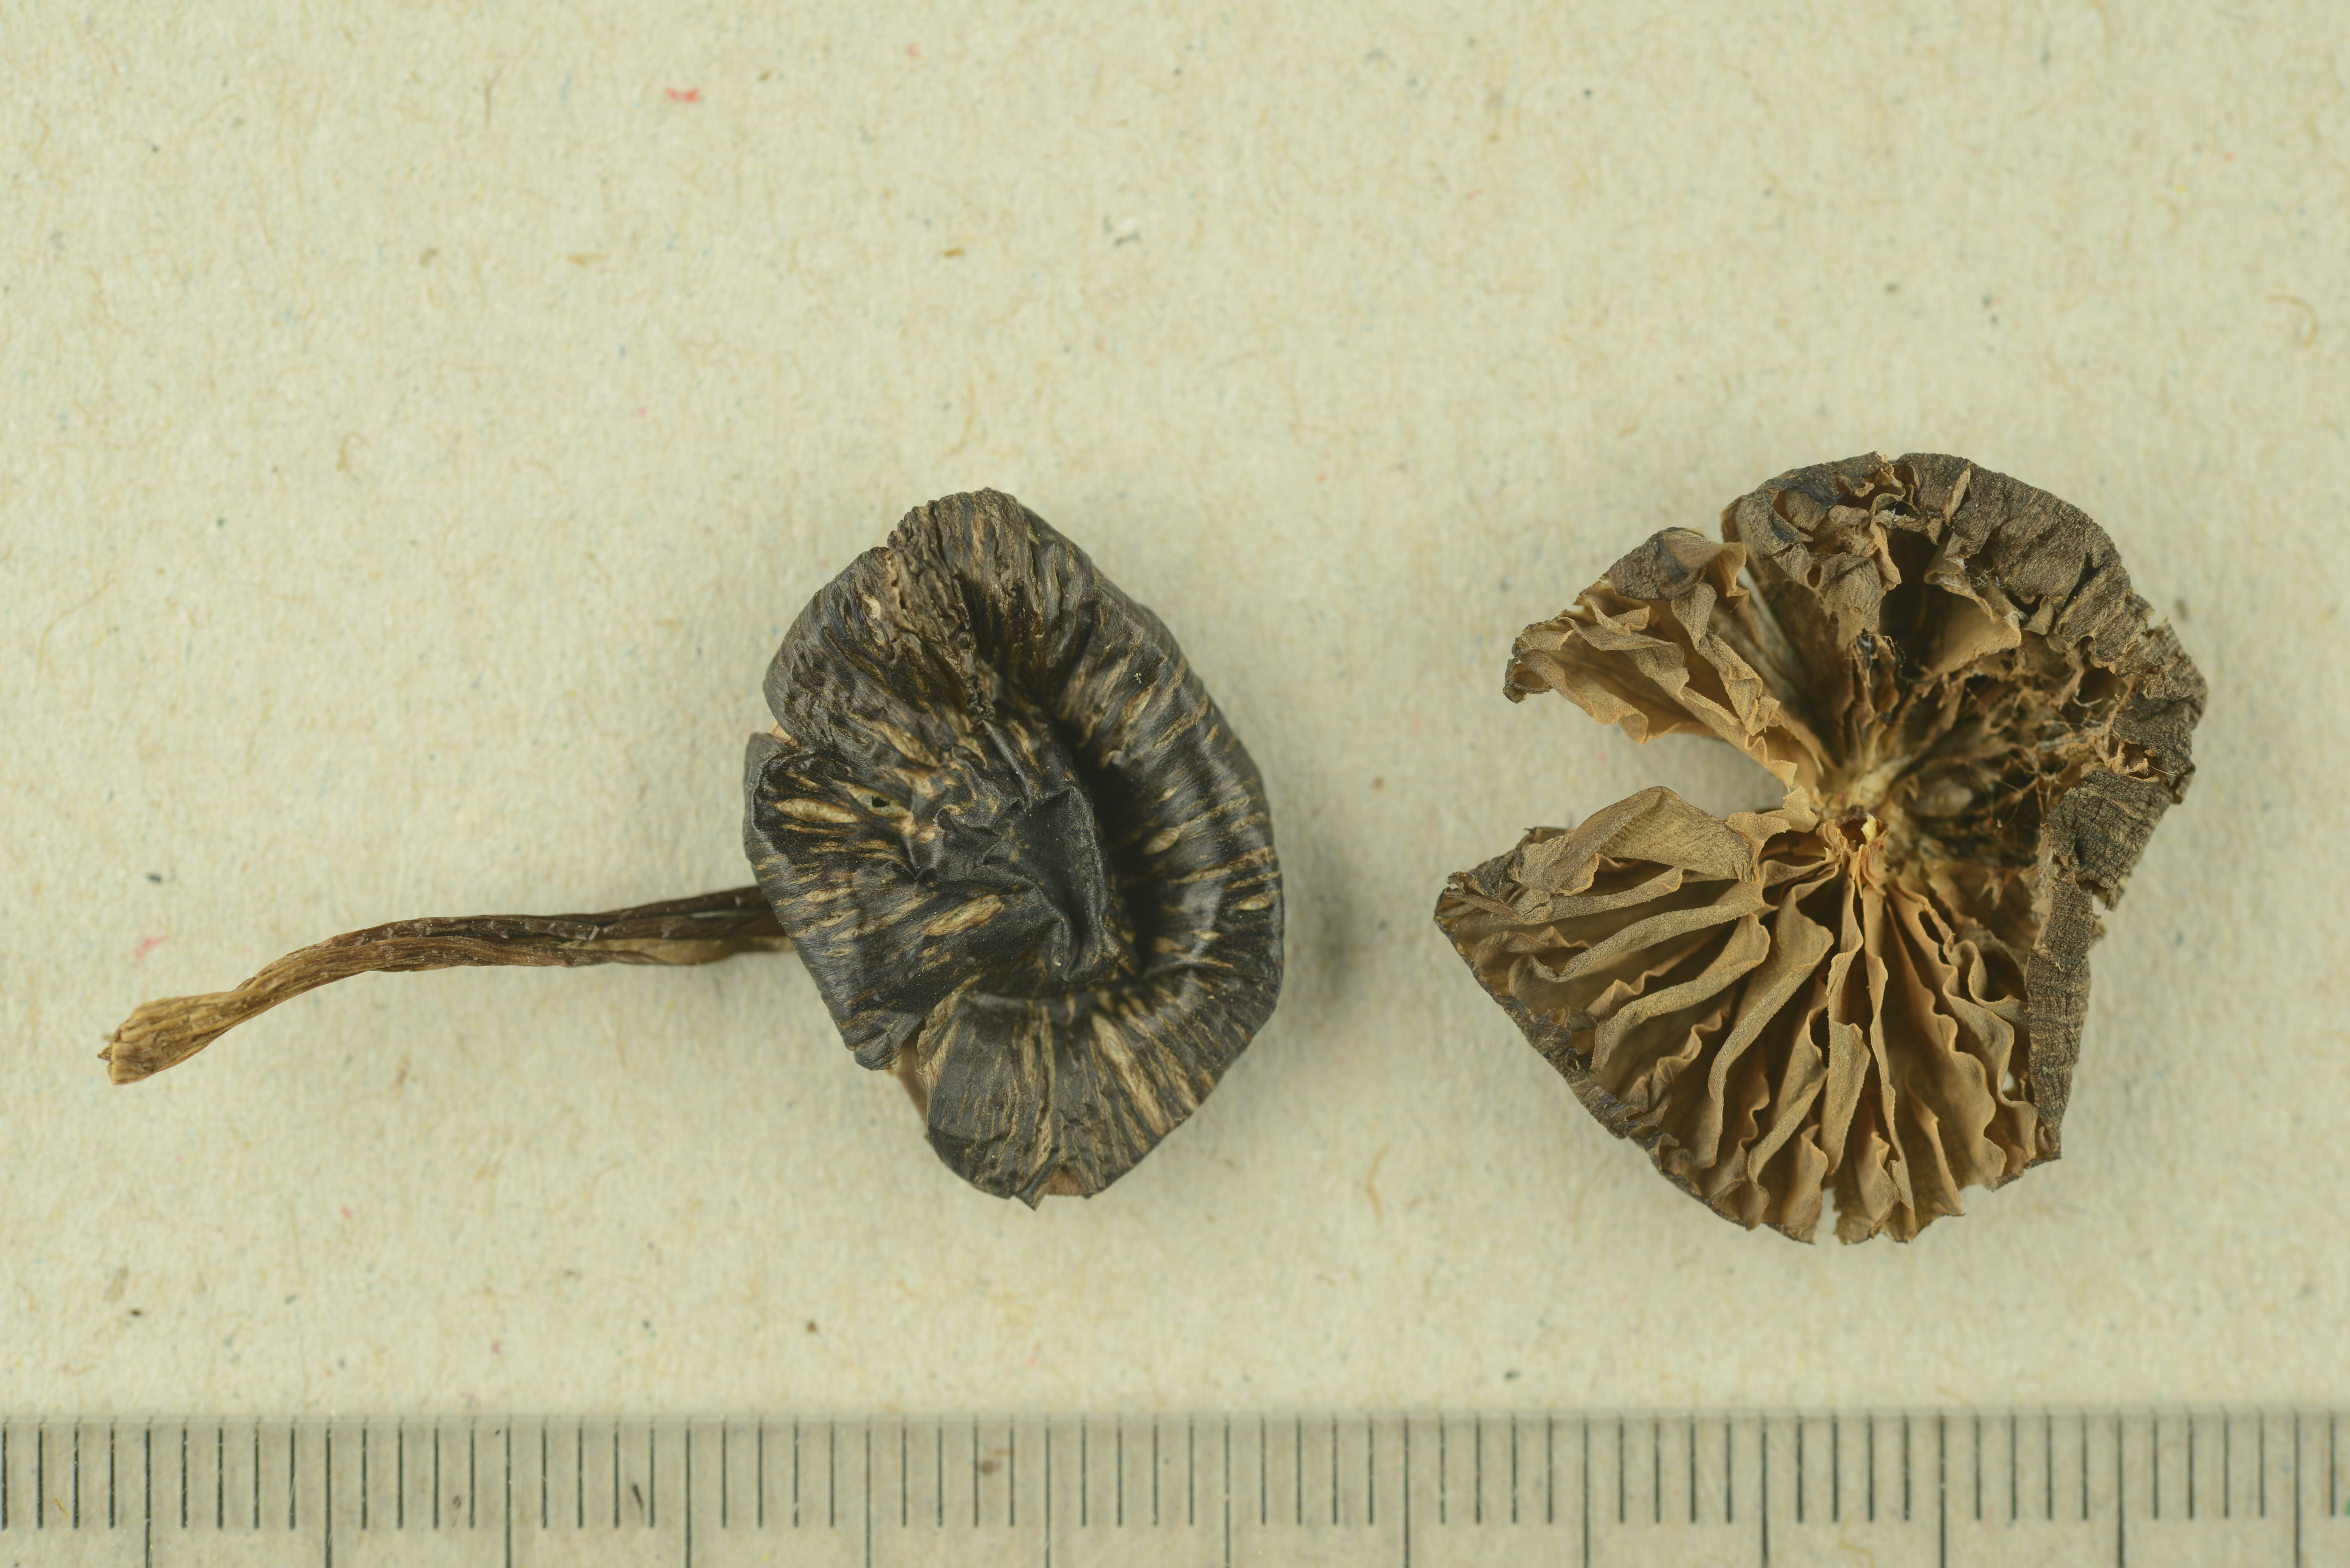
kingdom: Fungi
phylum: Basidiomycota
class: Agaricomycetes
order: Agaricales
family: Entolomataceae
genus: Entoloma
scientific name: Entoloma calaminare
